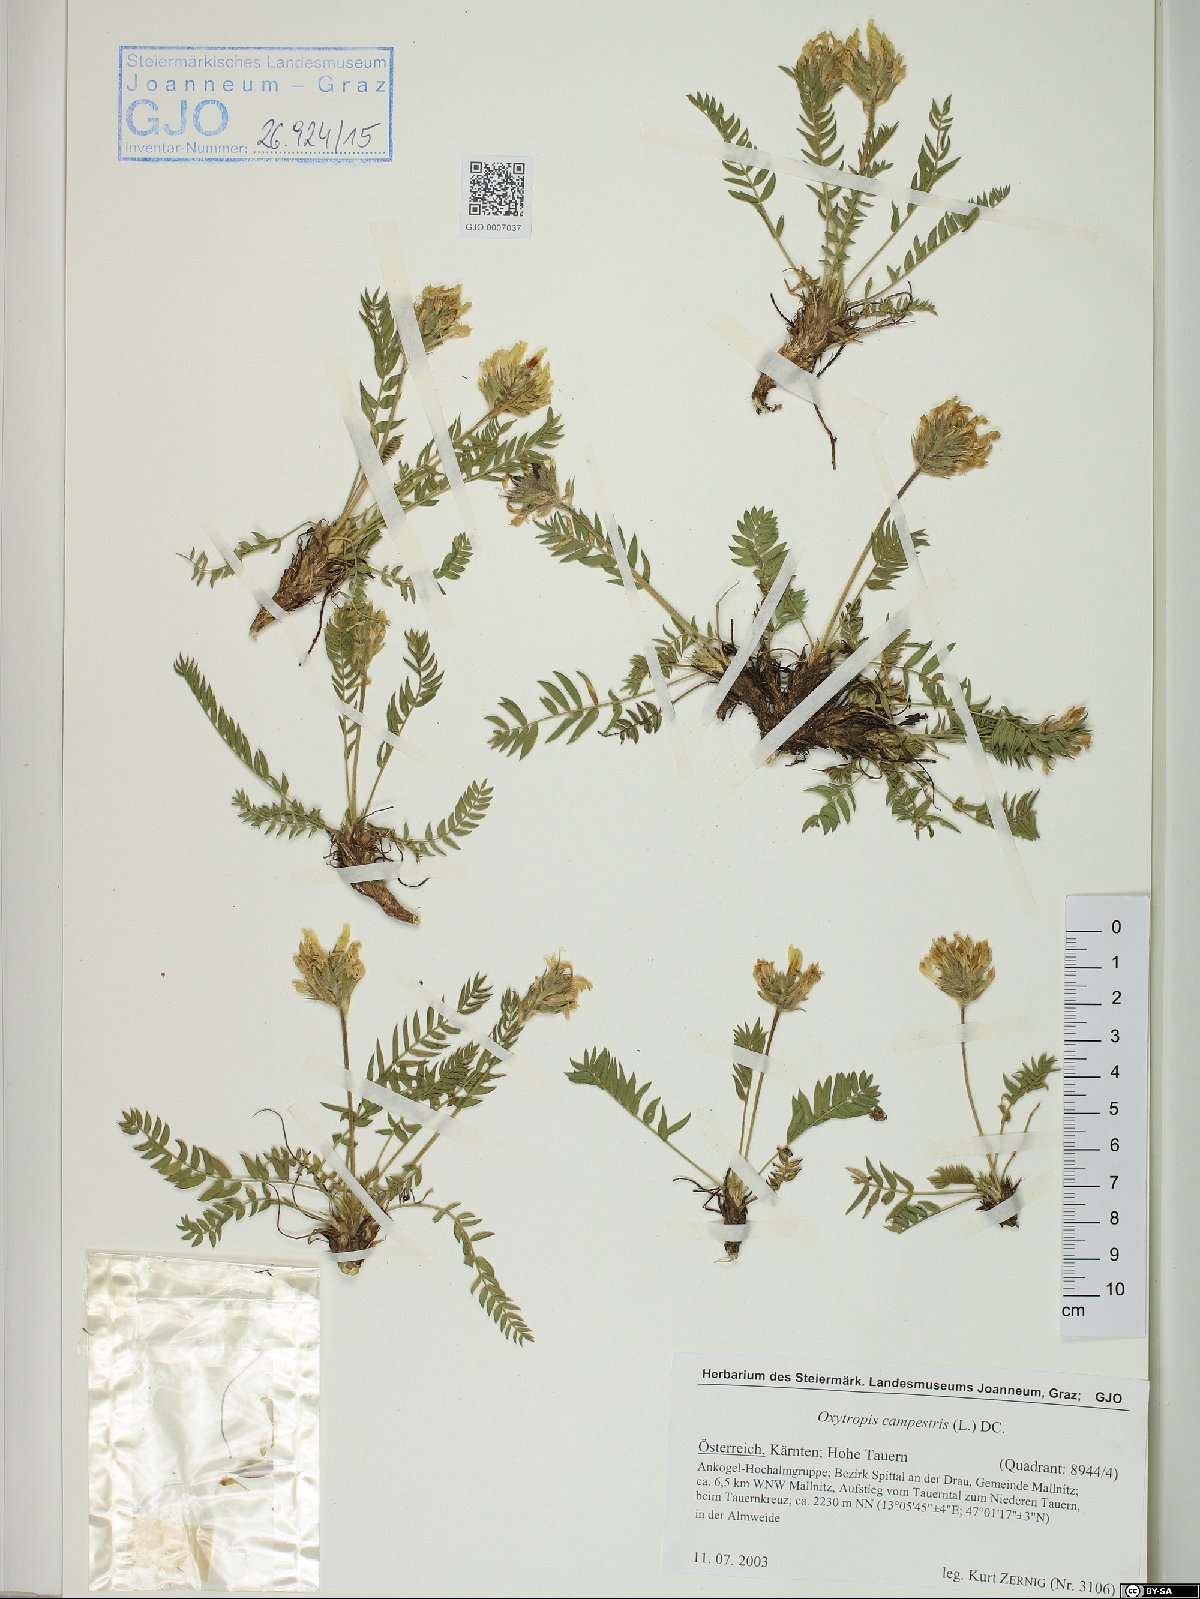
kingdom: Plantae
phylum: Tracheophyta
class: Magnoliopsida
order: Fabales
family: Fabaceae
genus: Oxytropis
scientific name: Oxytropis campestris
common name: Field locoweed
